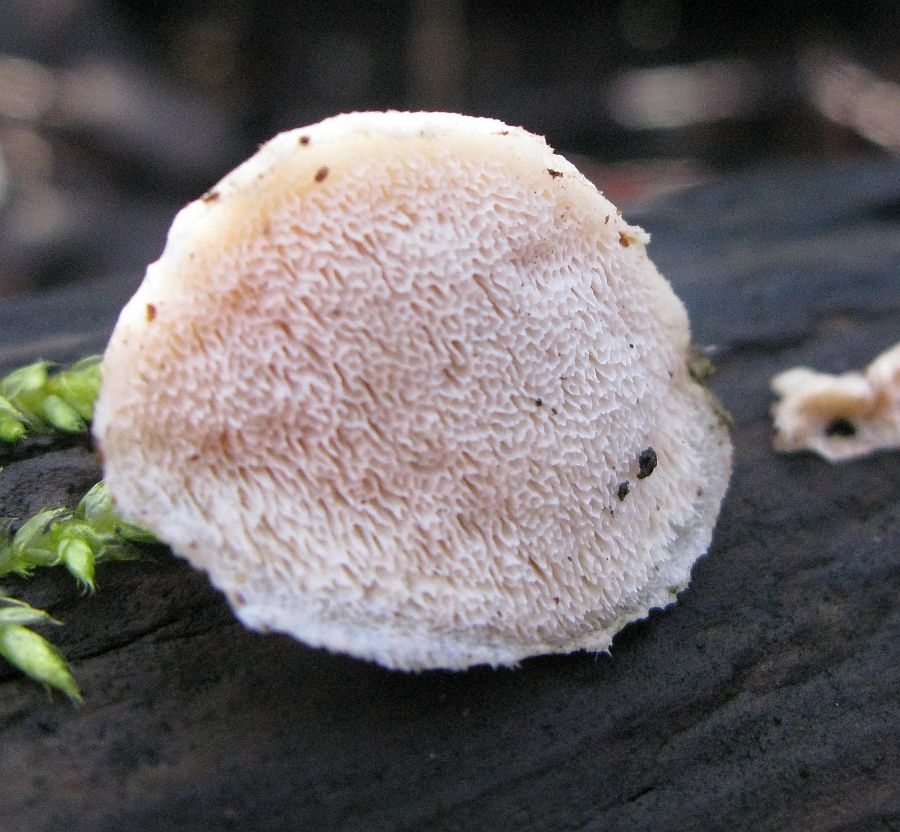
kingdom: Fungi
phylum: Basidiomycota
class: Agaricomycetes
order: Polyporales
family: Incrustoporiaceae
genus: Tyromyces
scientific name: Tyromyces lacteus
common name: mælkehvid kødporesvamp
